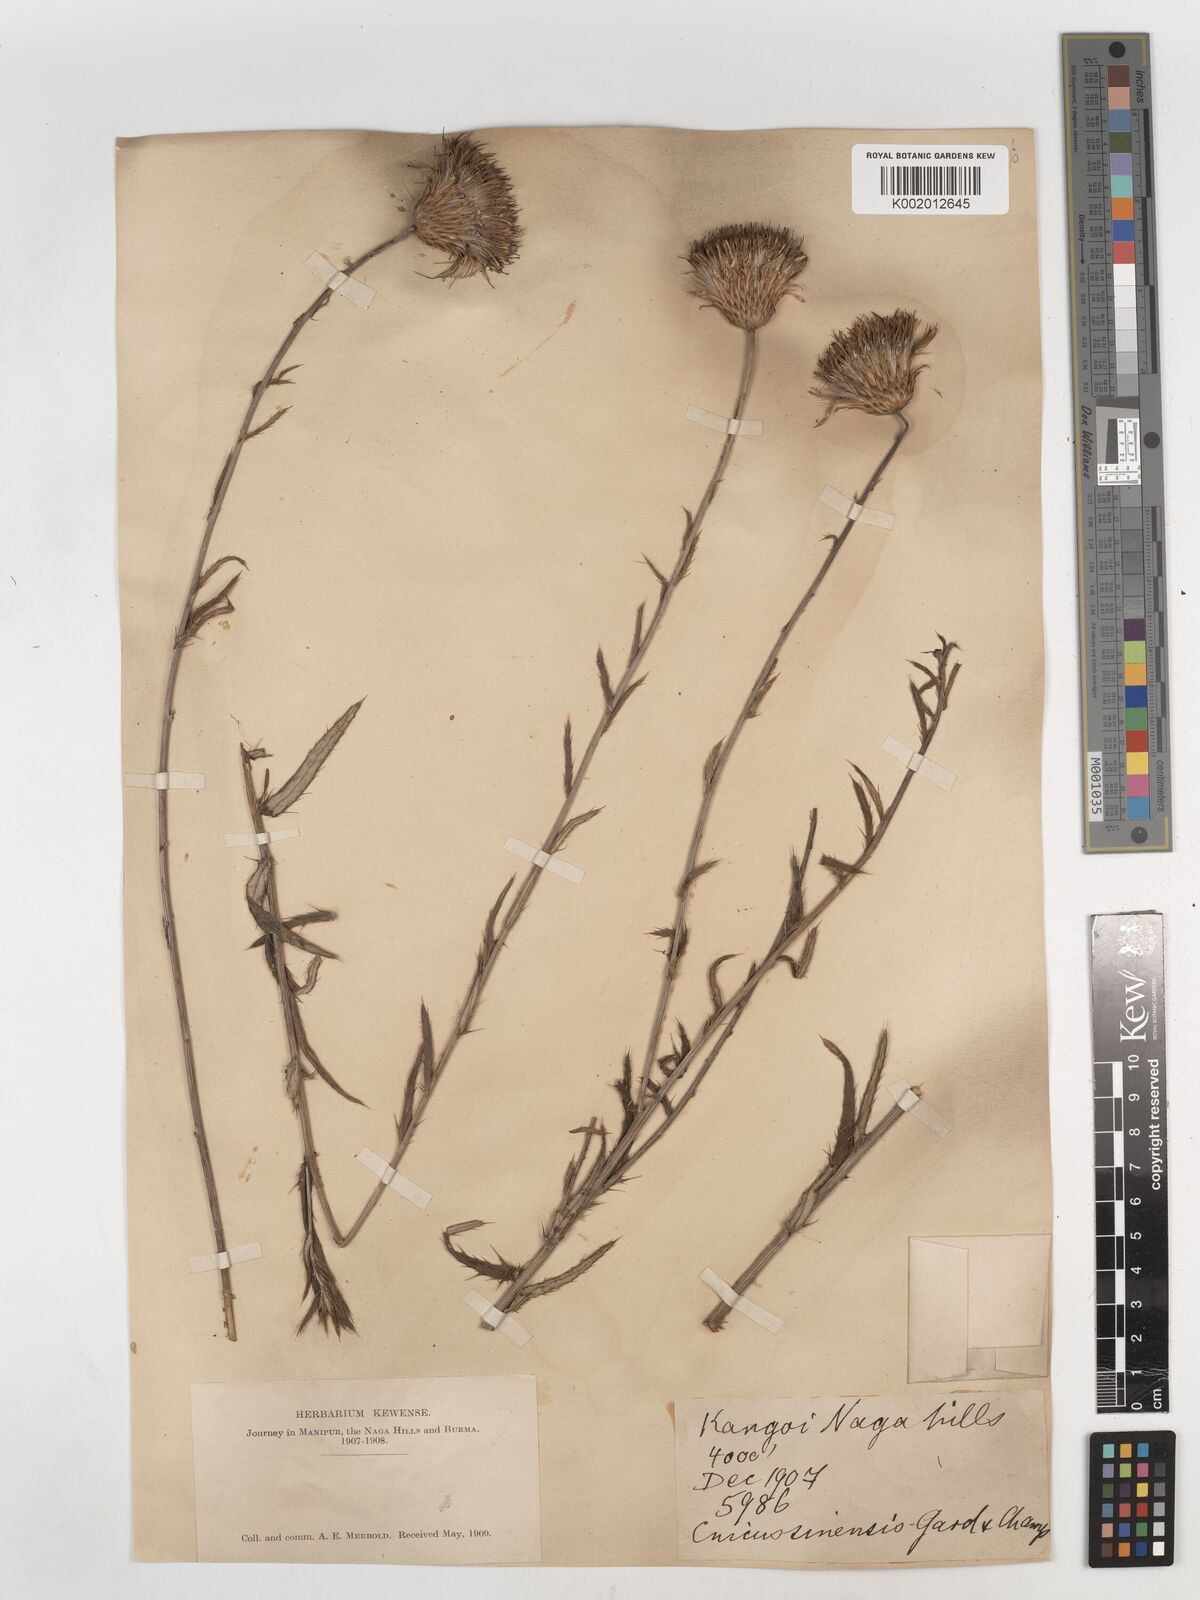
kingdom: Plantae
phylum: Tracheophyta
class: Magnoliopsida
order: Asterales
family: Asteraceae
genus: Cirsium
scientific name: Cirsium chinense
